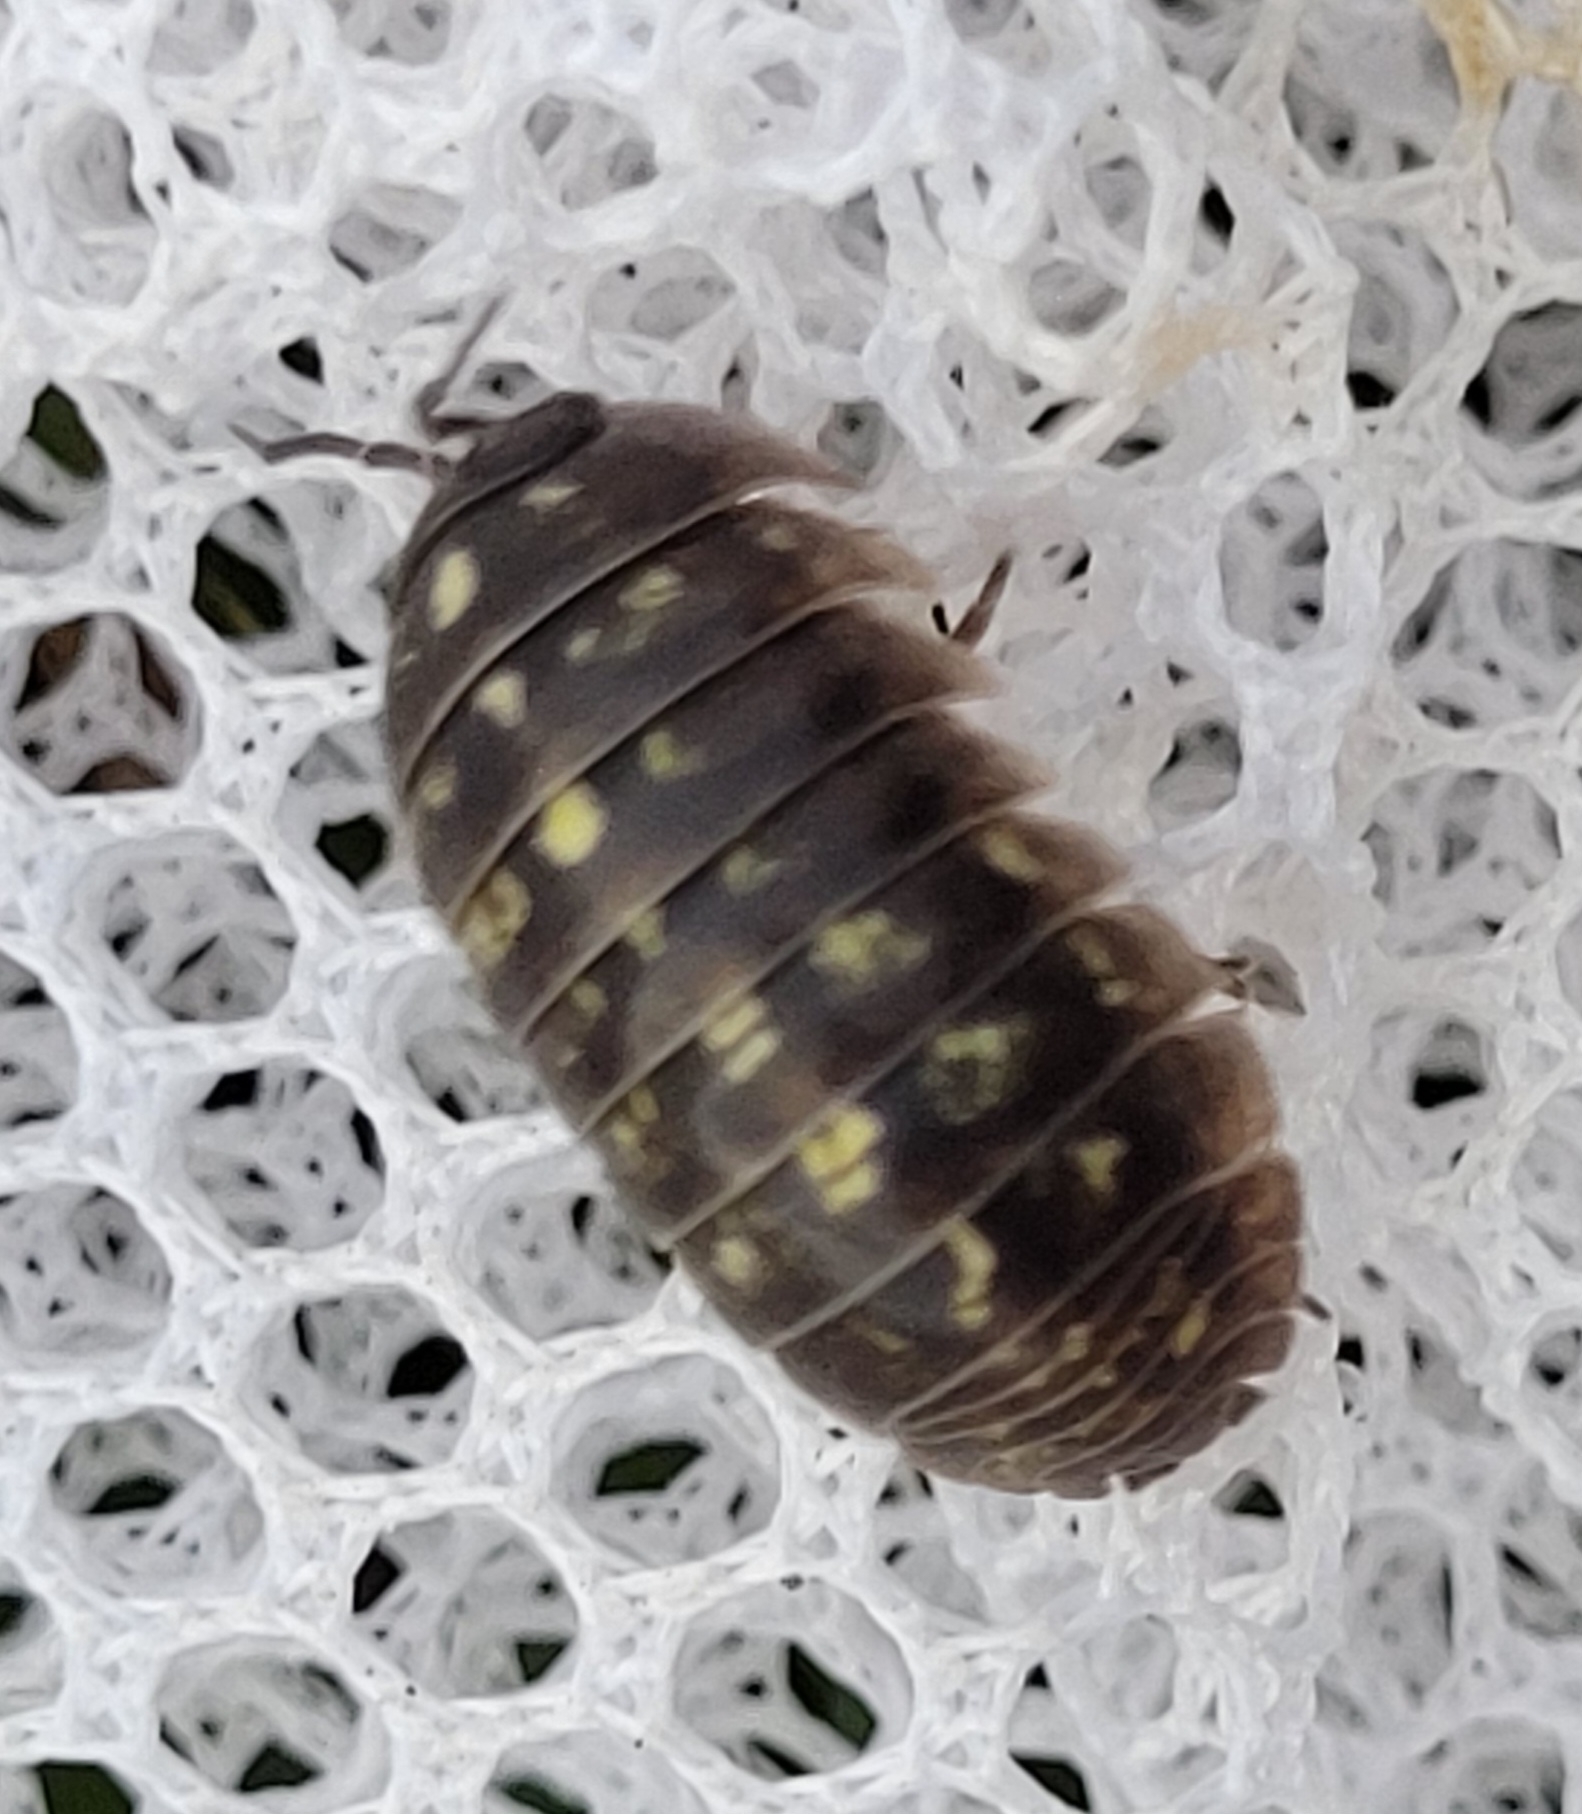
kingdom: Animalia
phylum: Arthropoda
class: Malacostraca
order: Isopoda
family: Armadillidiidae
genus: Armadillidium
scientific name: Armadillidium vulgare
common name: Almindelig kuglebænkebider
